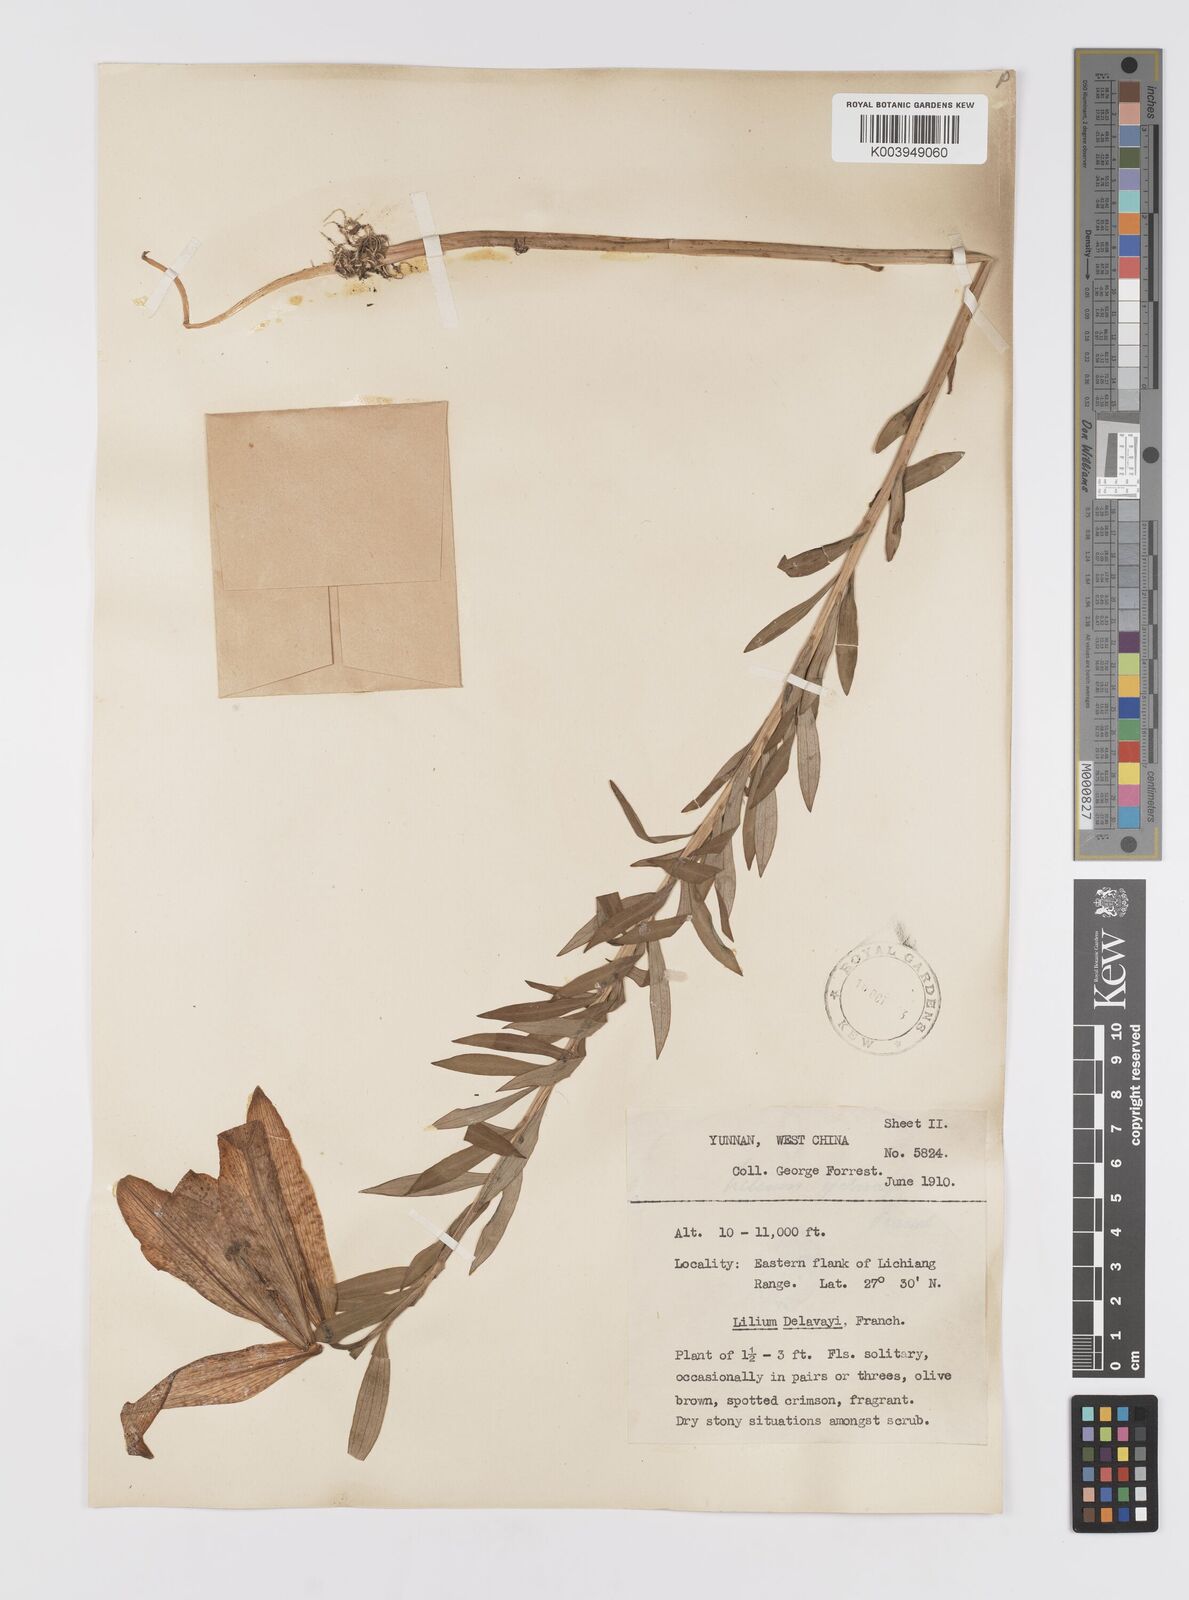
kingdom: Plantae
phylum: Tracheophyta
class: Liliopsida
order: Liliales
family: Liliaceae
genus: Lilium
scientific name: Lilium bakerianum
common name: Baker's lily
